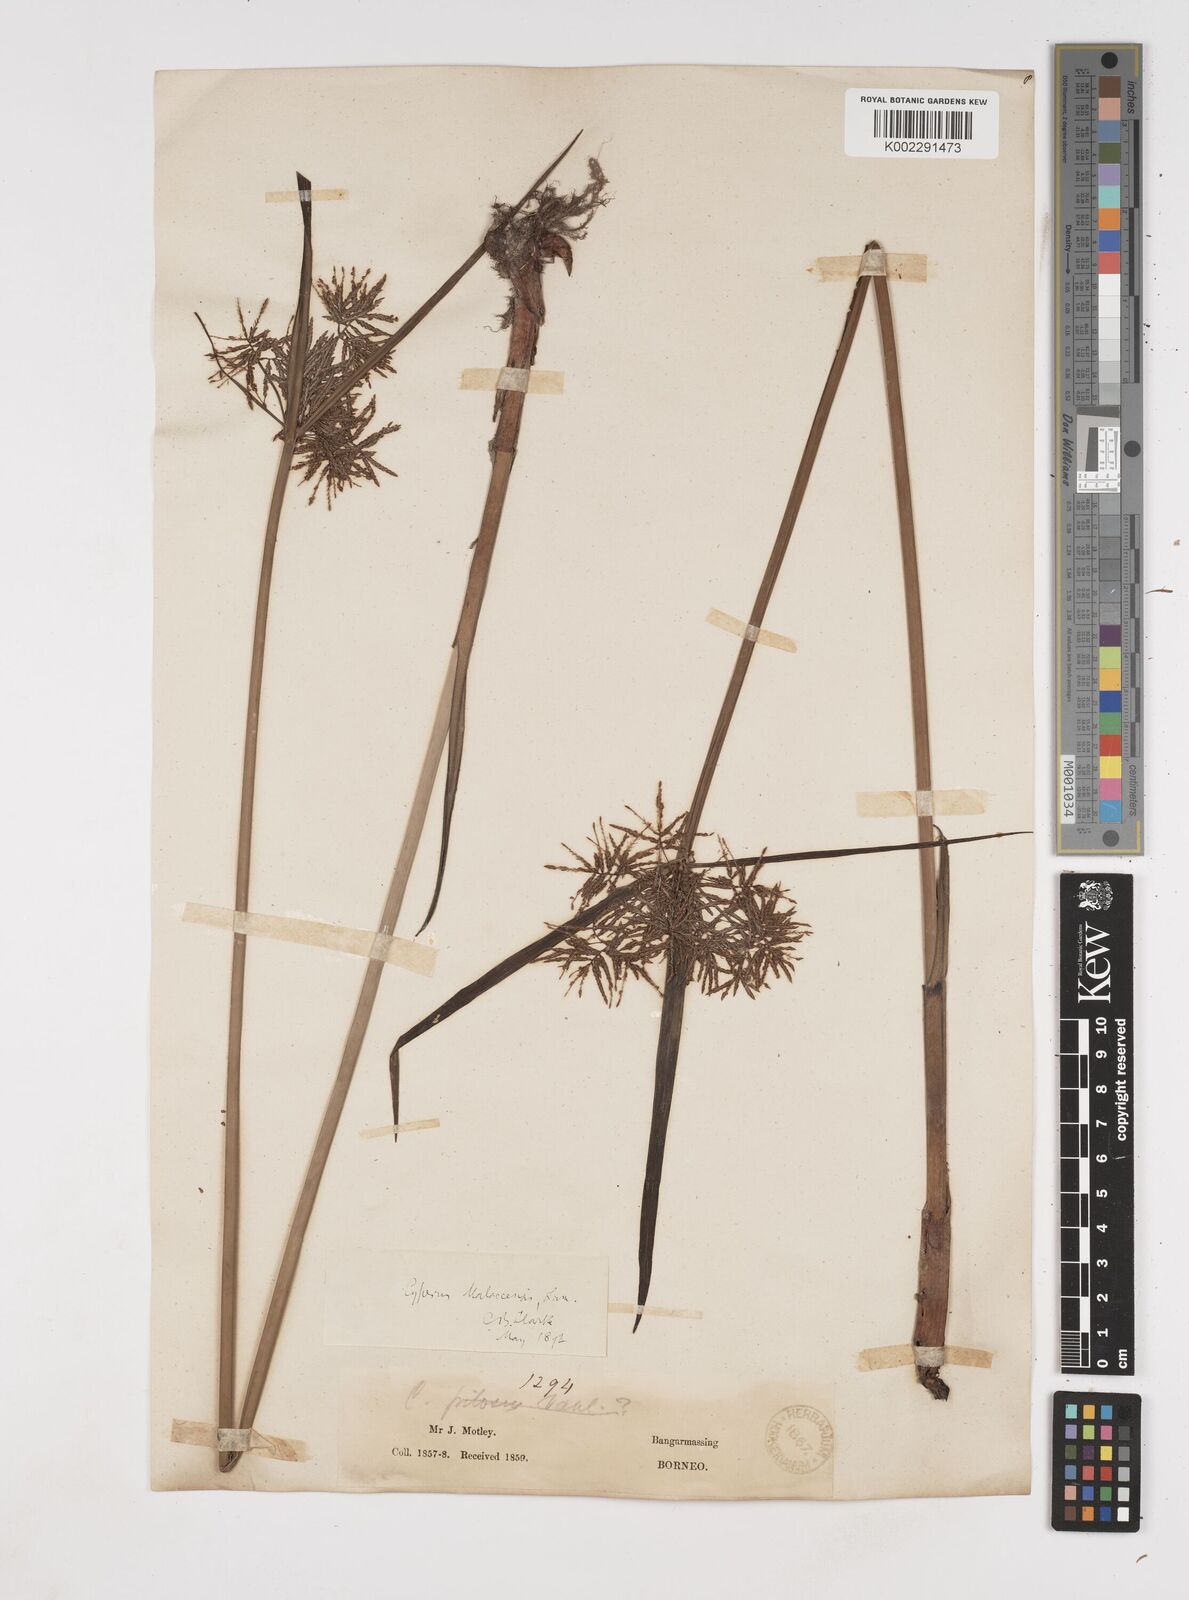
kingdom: Plantae
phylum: Tracheophyta
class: Liliopsida
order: Poales
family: Cyperaceae
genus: Cyperus
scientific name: Cyperus malaccensis
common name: Shichito matgrass
